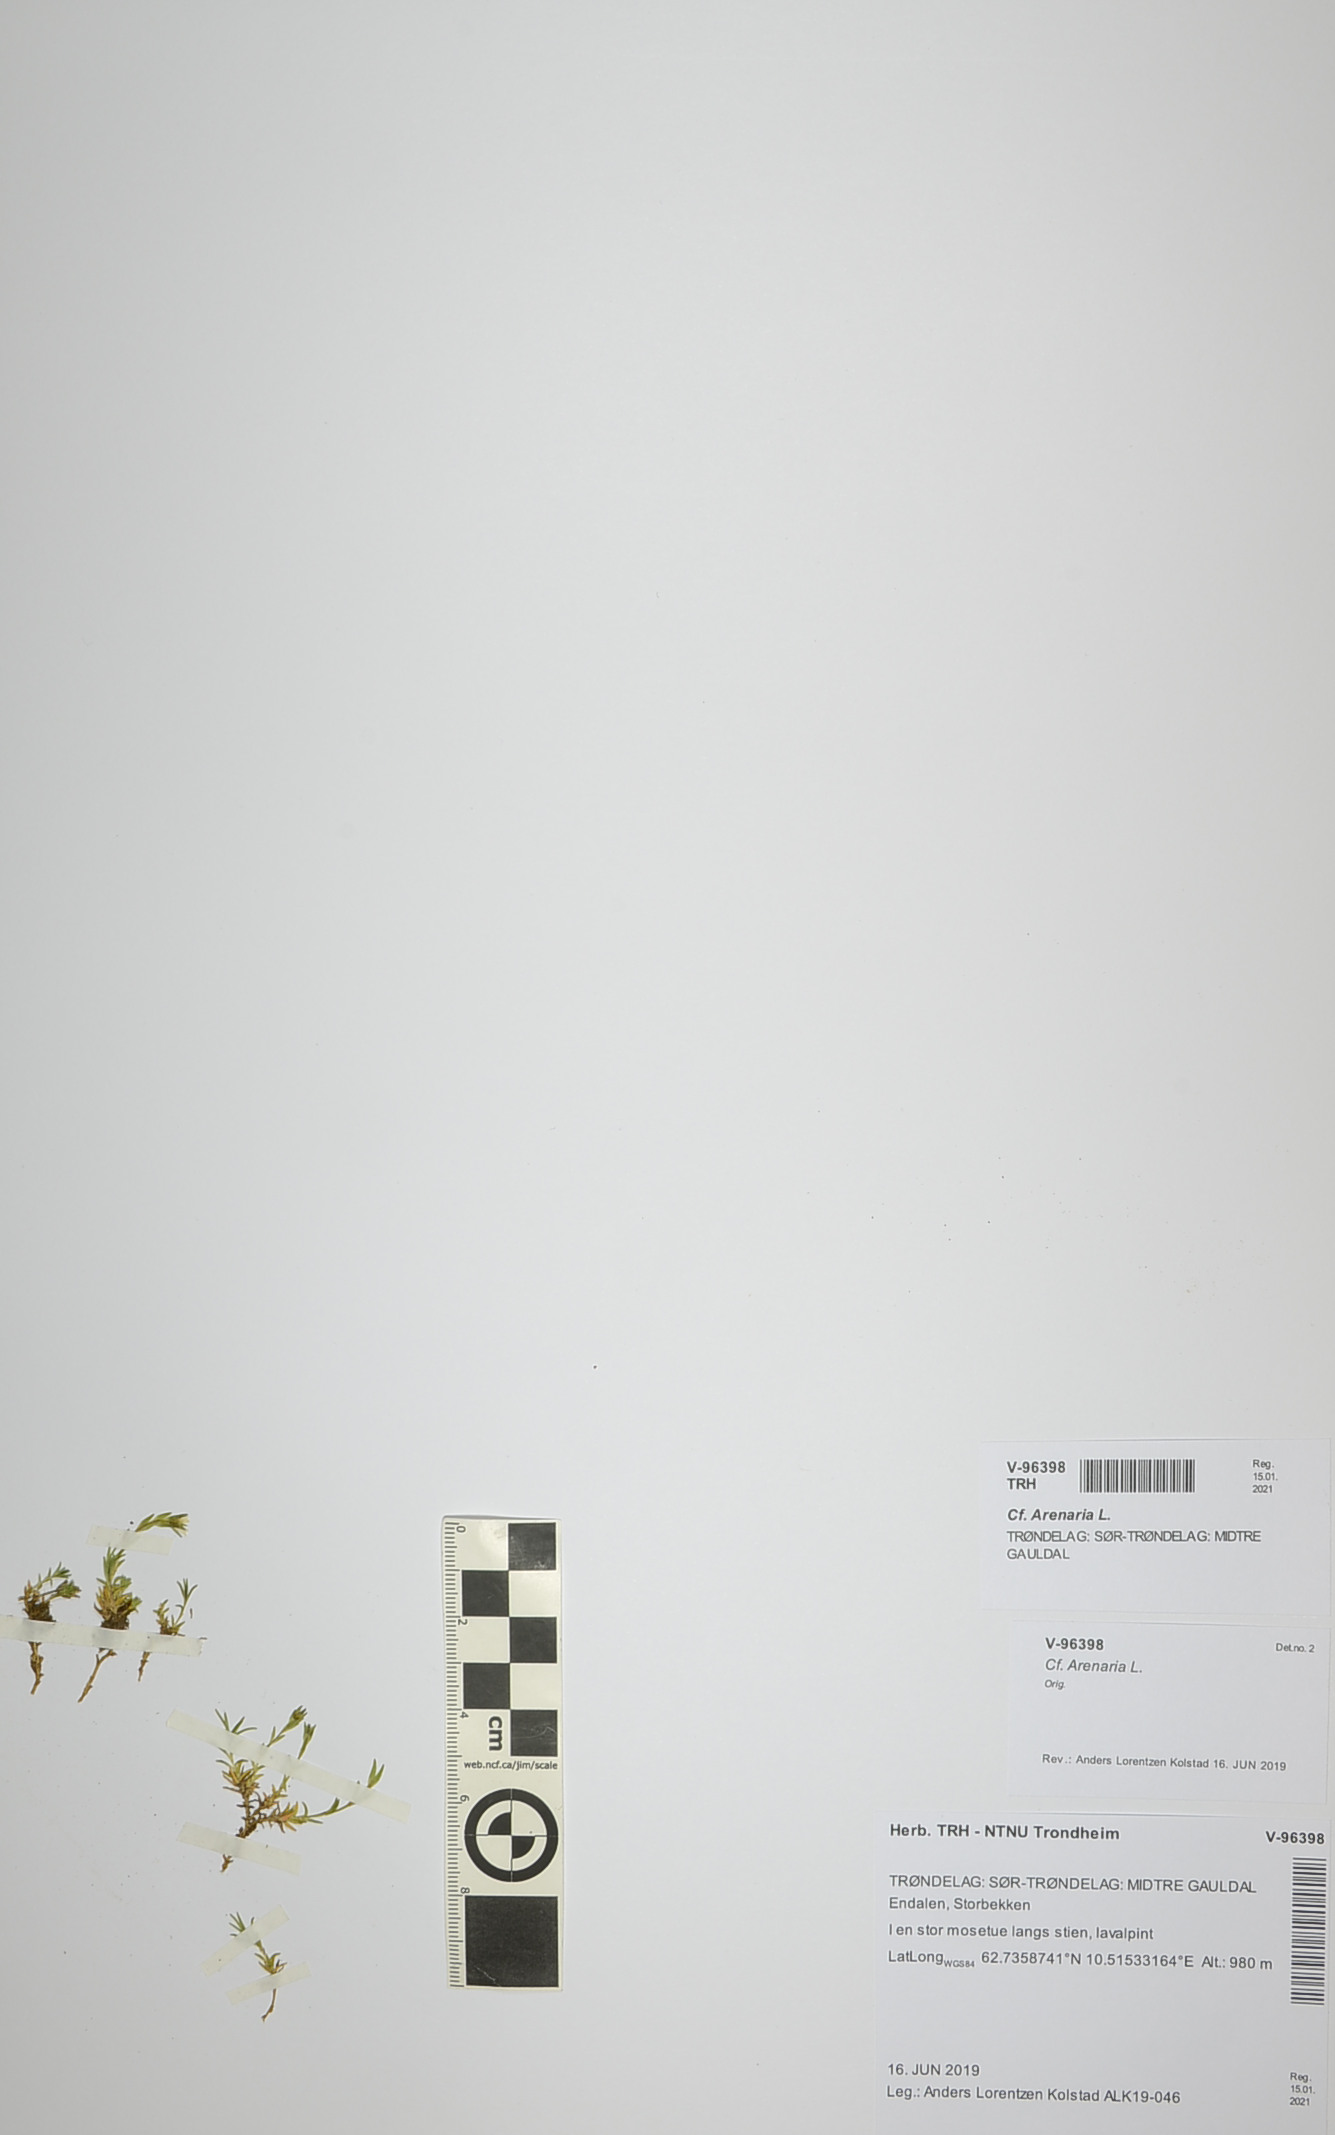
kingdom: Plantae
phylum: Tracheophyta
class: Magnoliopsida
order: Caryophyllales
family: Caryophyllaceae
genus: Arenaria
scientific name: Arenaria
